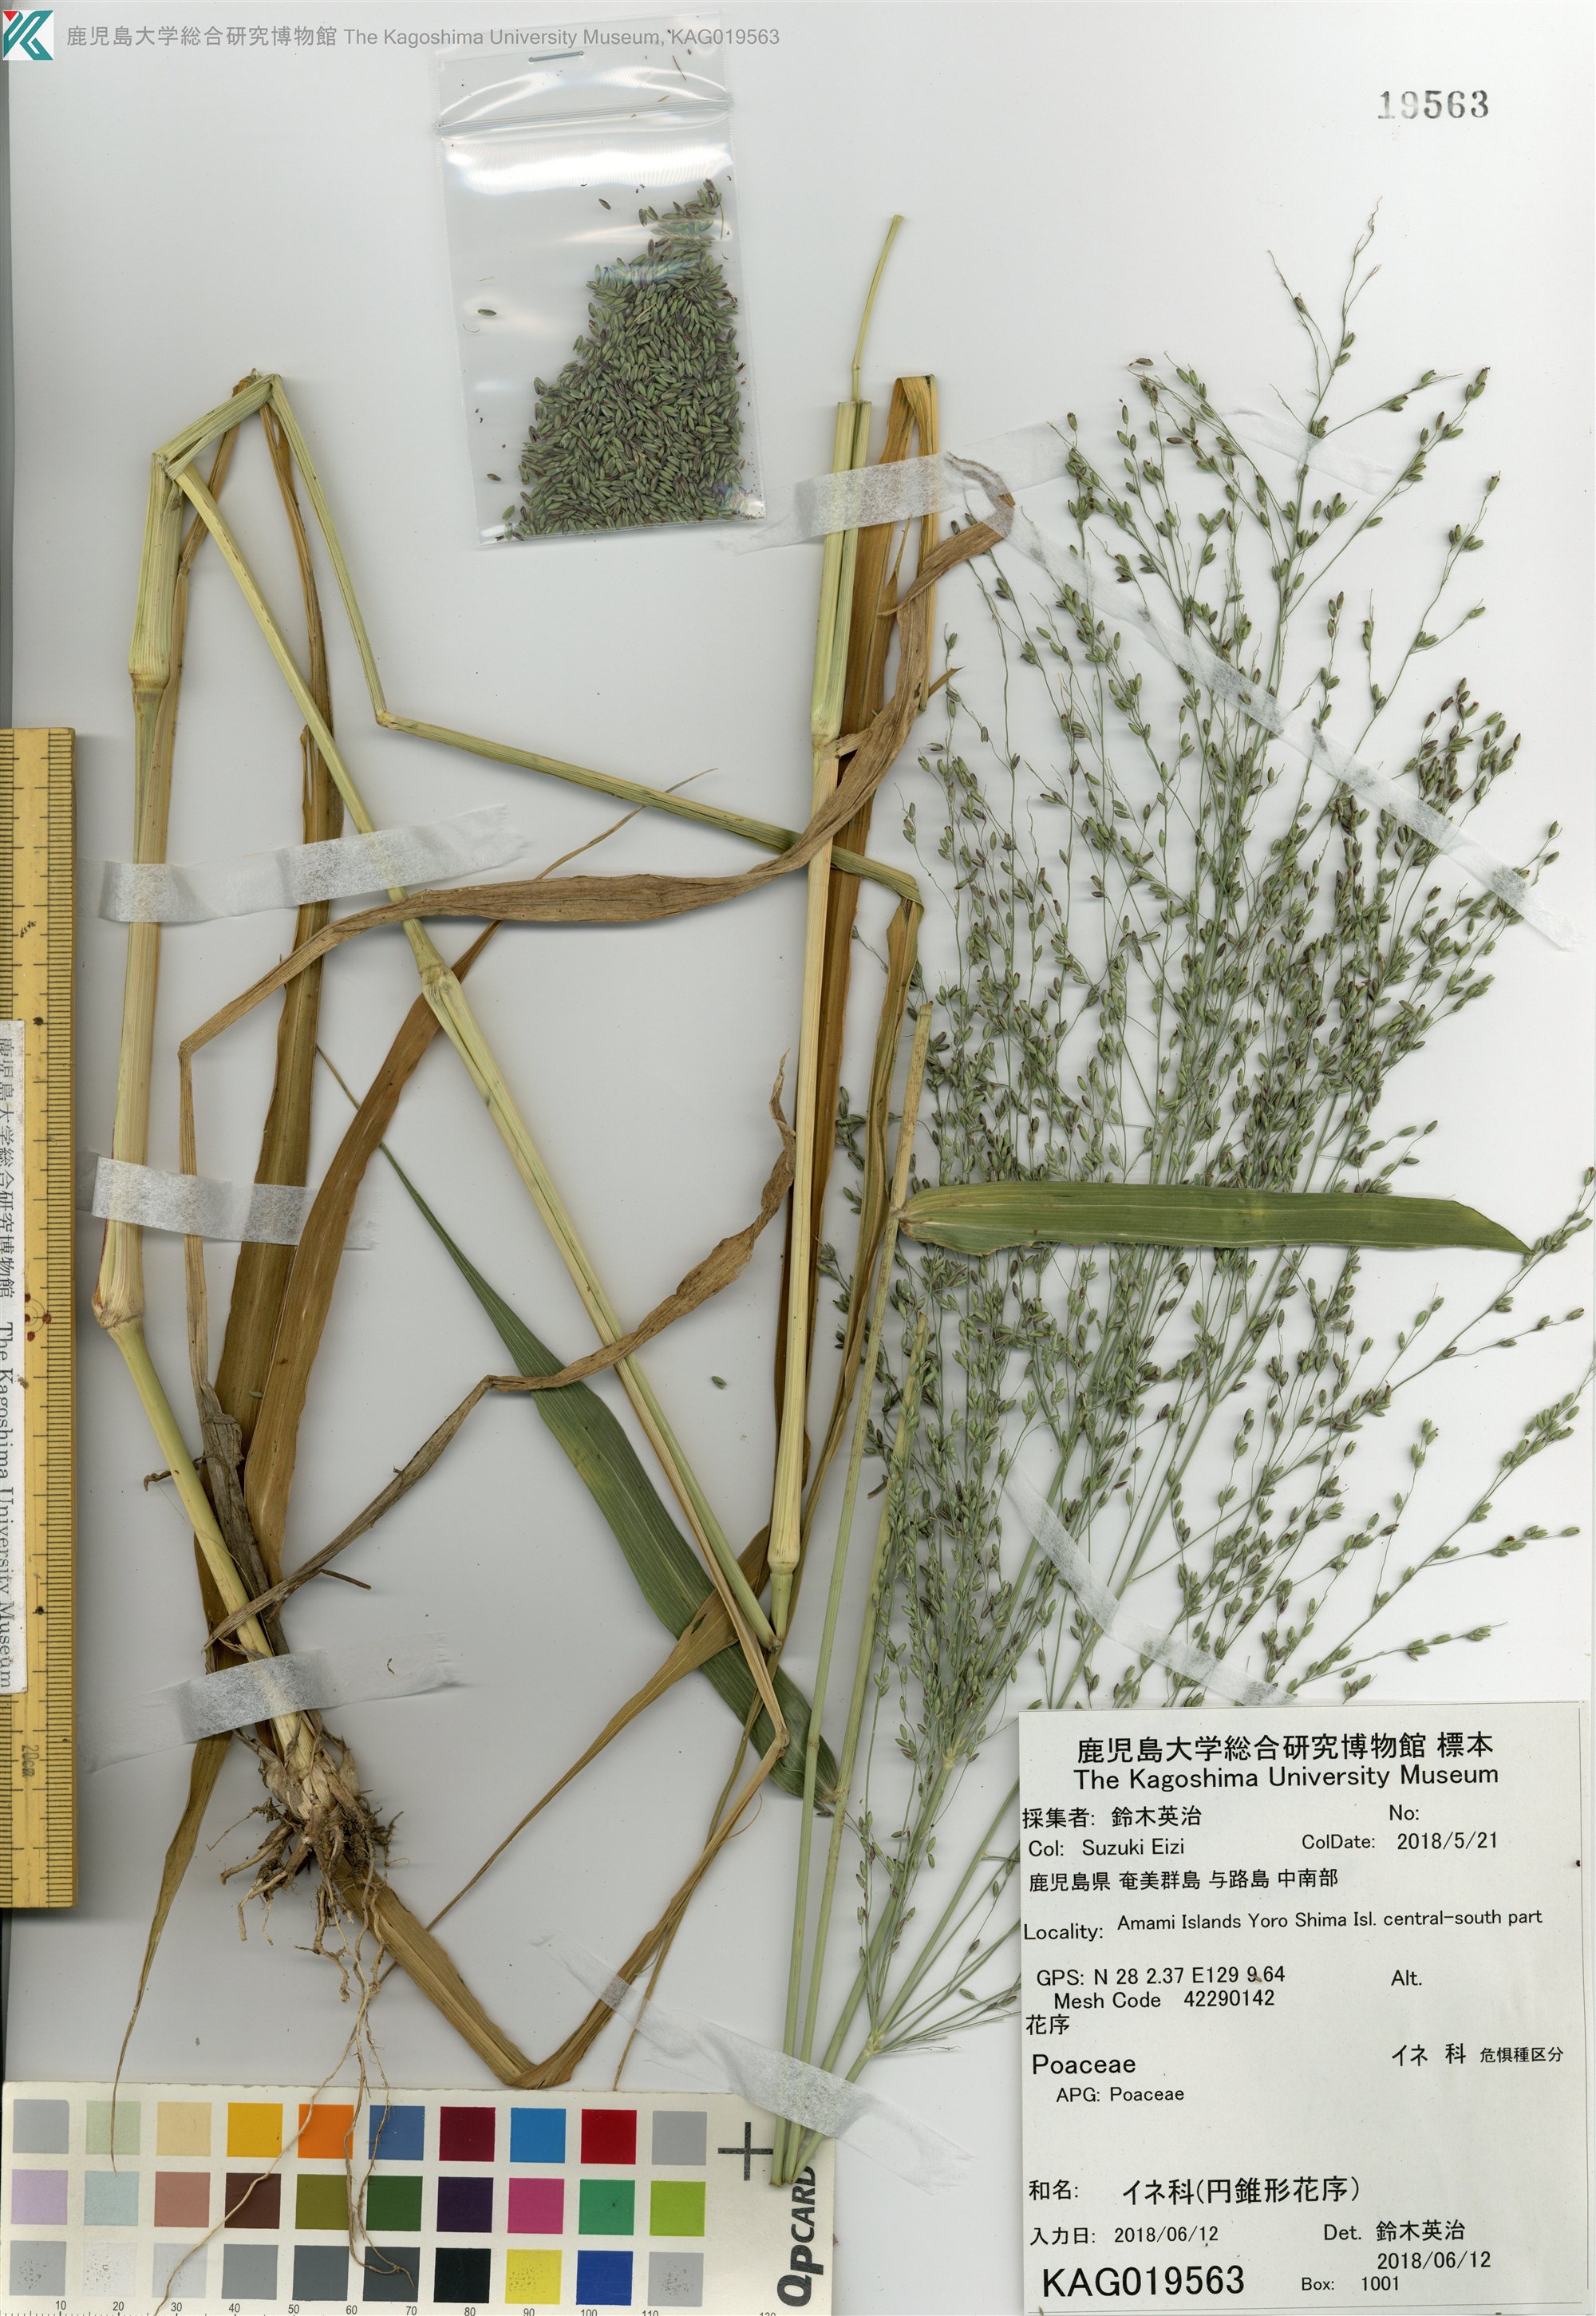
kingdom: Plantae
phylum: Tracheophyta
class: Liliopsida
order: Poales
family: Poaceae
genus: Panicum
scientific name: Panicum bisulcatum
